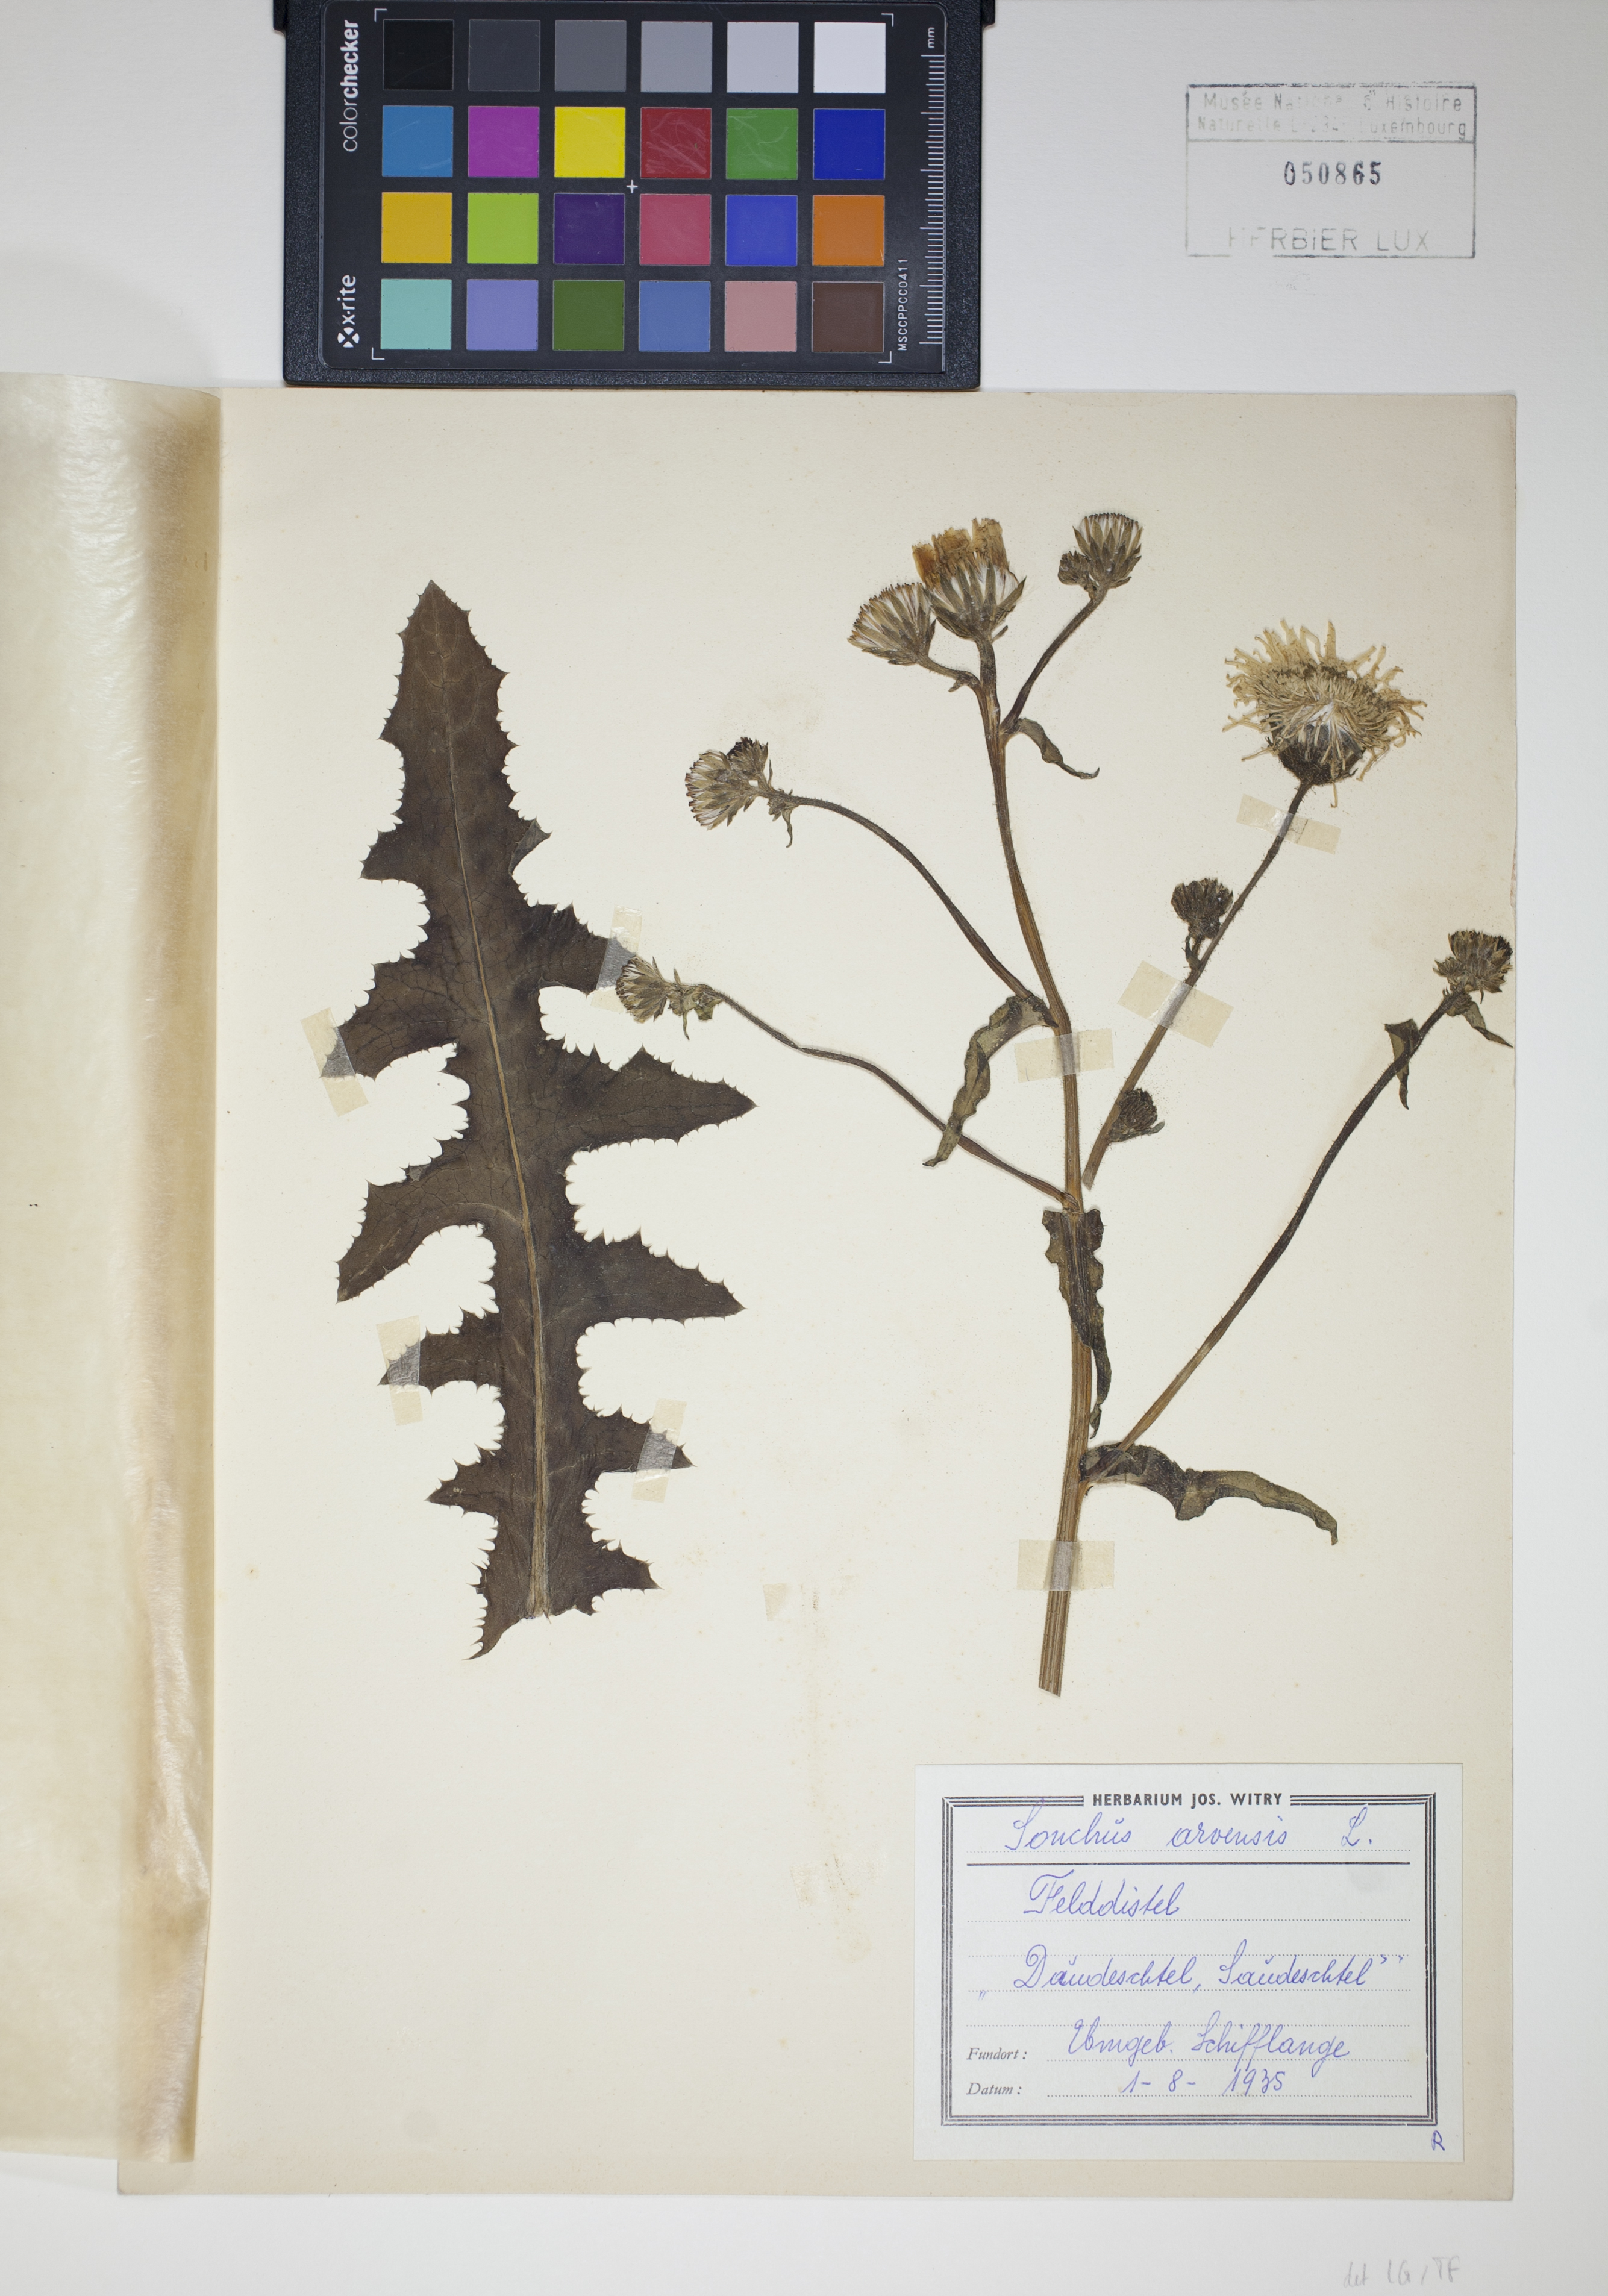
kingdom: Plantae
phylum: Tracheophyta
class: Magnoliopsida
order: Asterales
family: Asteraceae
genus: Sonchus
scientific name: Sonchus arvensis
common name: Perennial sow-thistle
